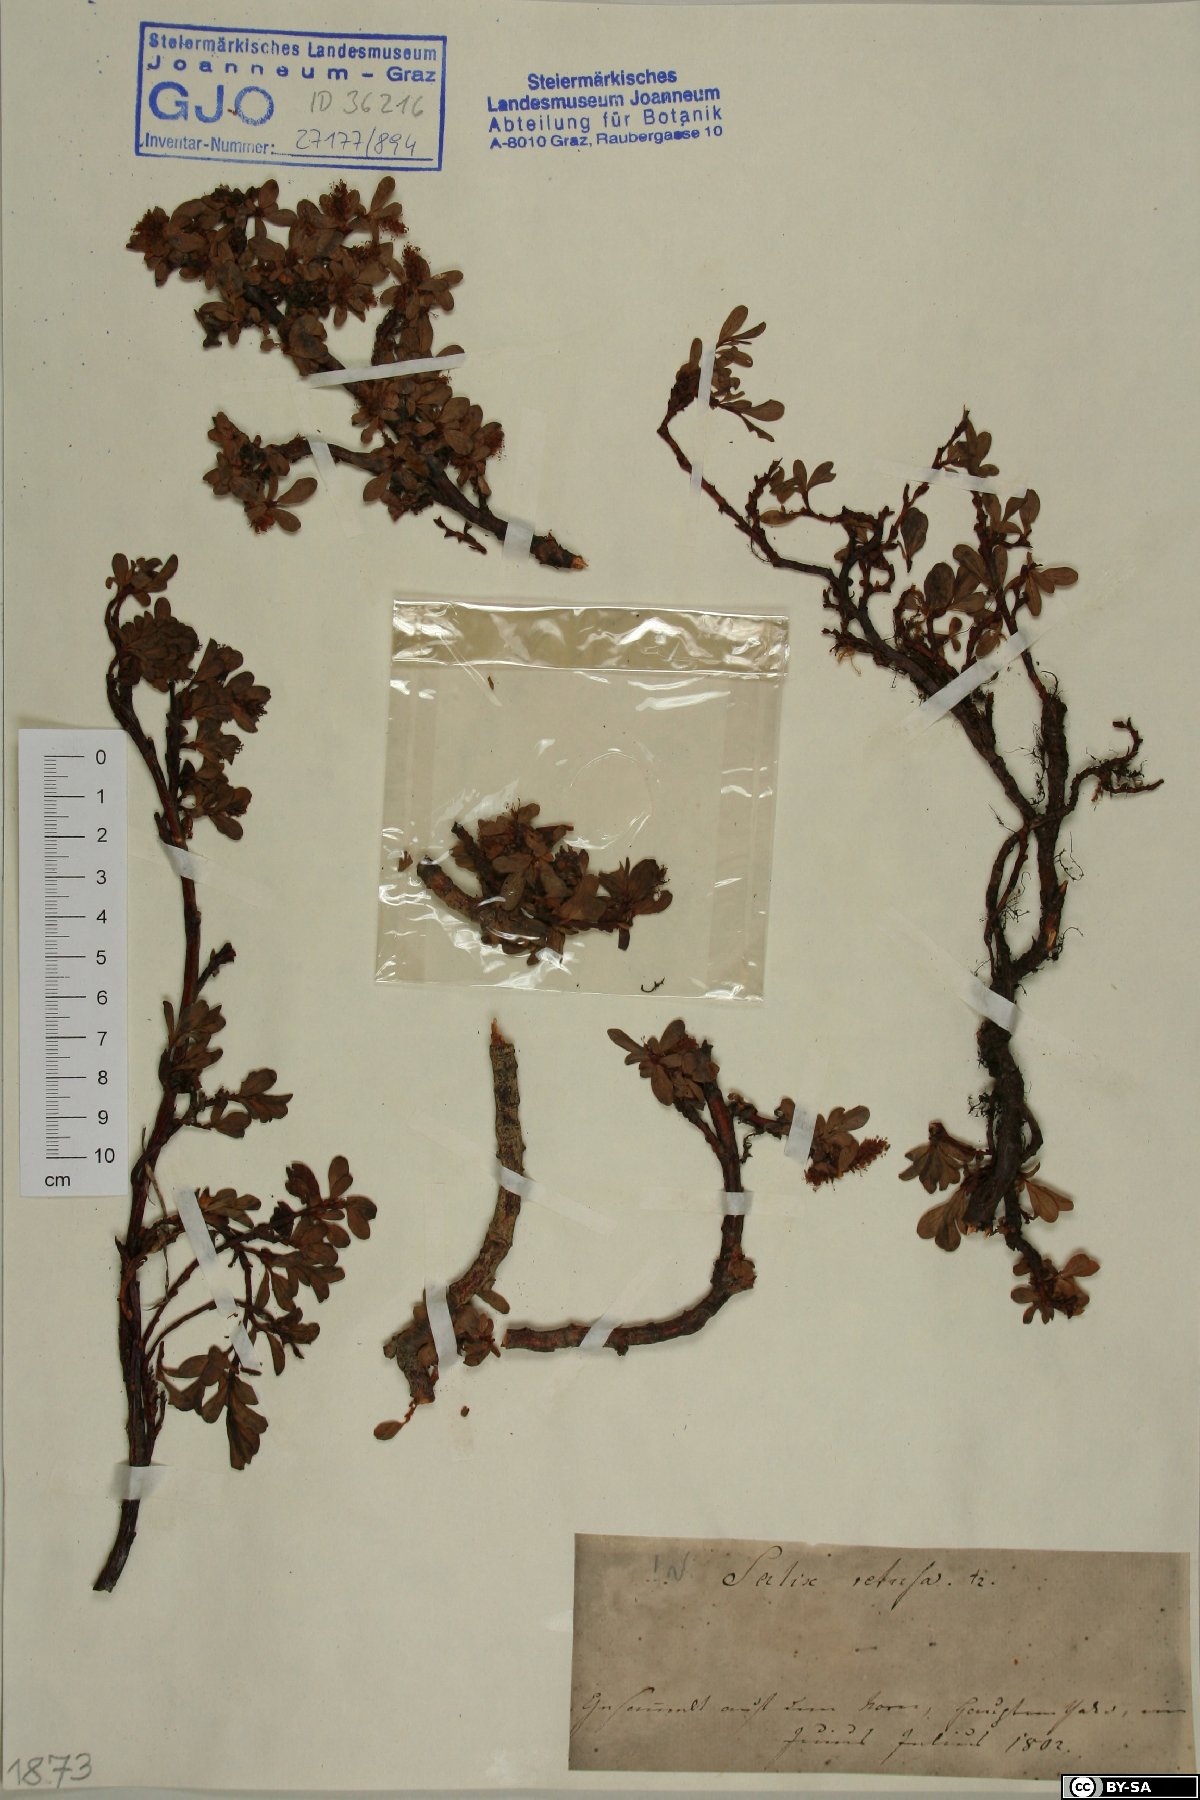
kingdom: Plantae
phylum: Tracheophyta
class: Magnoliopsida
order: Malpighiales
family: Salicaceae
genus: Salix
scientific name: Salix retusa
